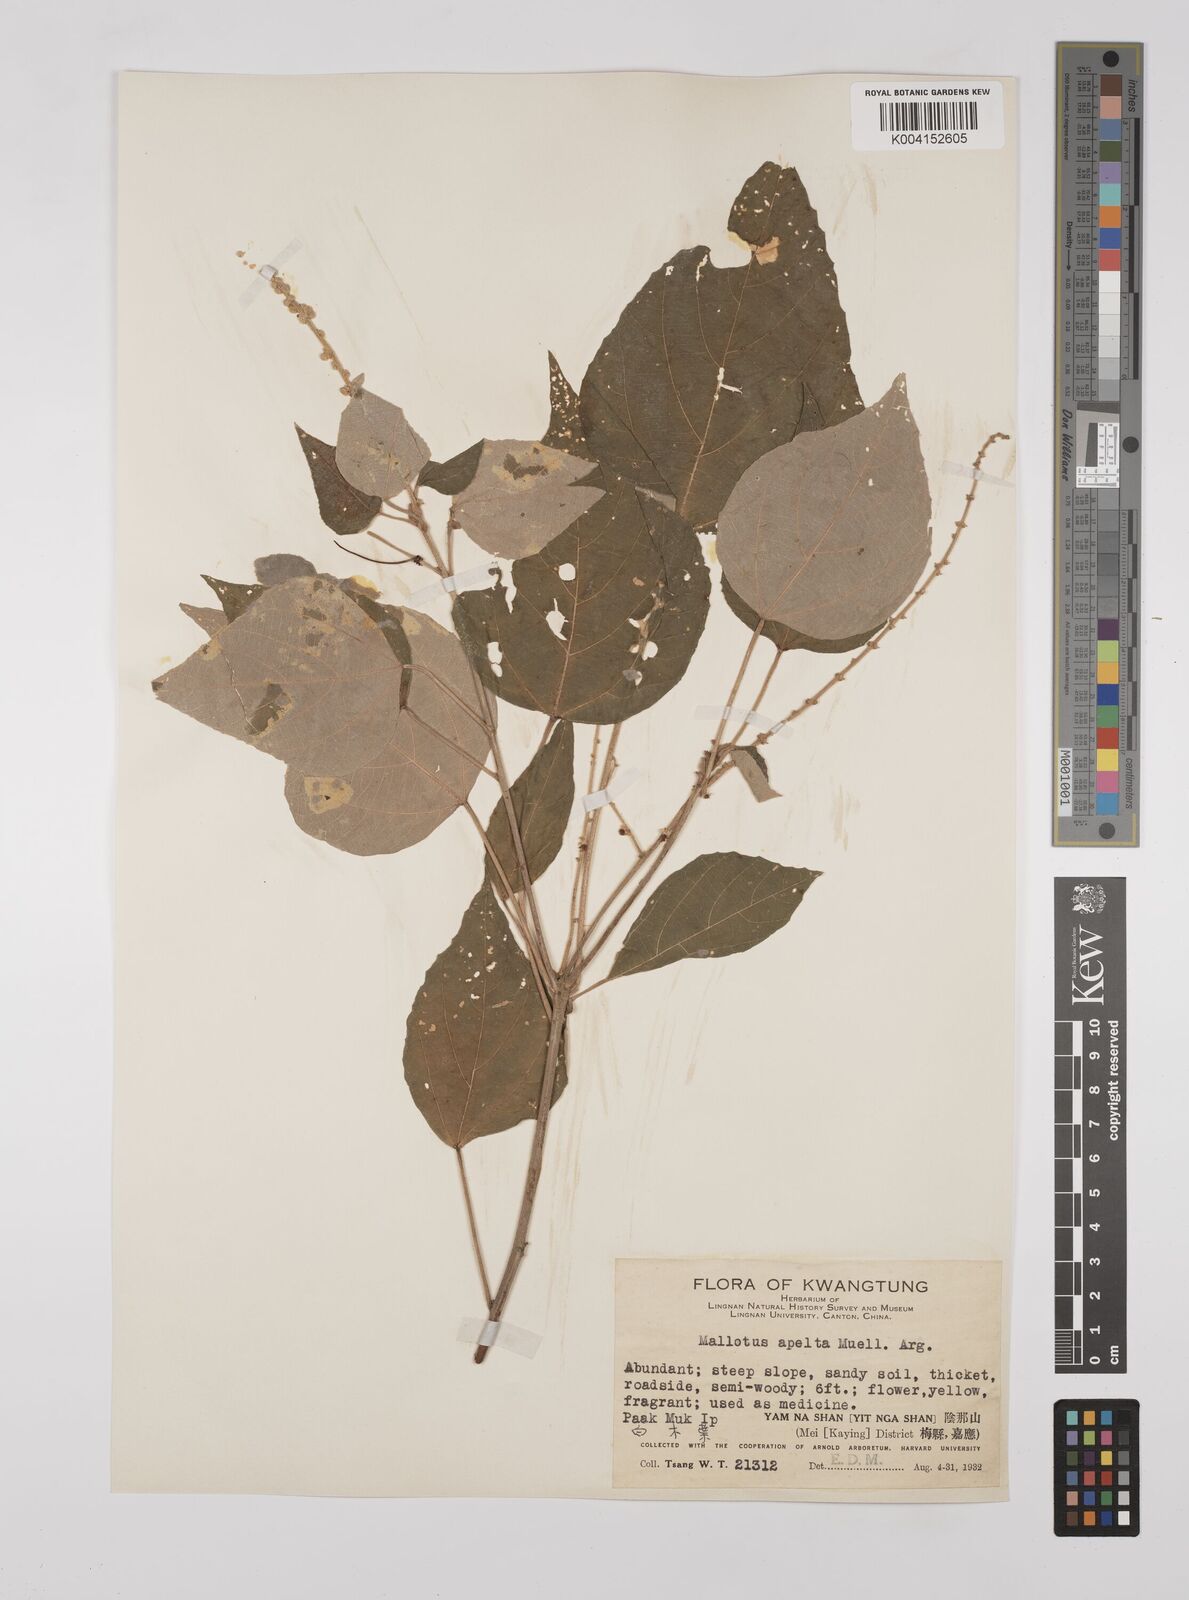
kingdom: Plantae
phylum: Tracheophyta
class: Magnoliopsida
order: Malpighiales
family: Euphorbiaceae
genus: Mallotus
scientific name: Mallotus apelta
